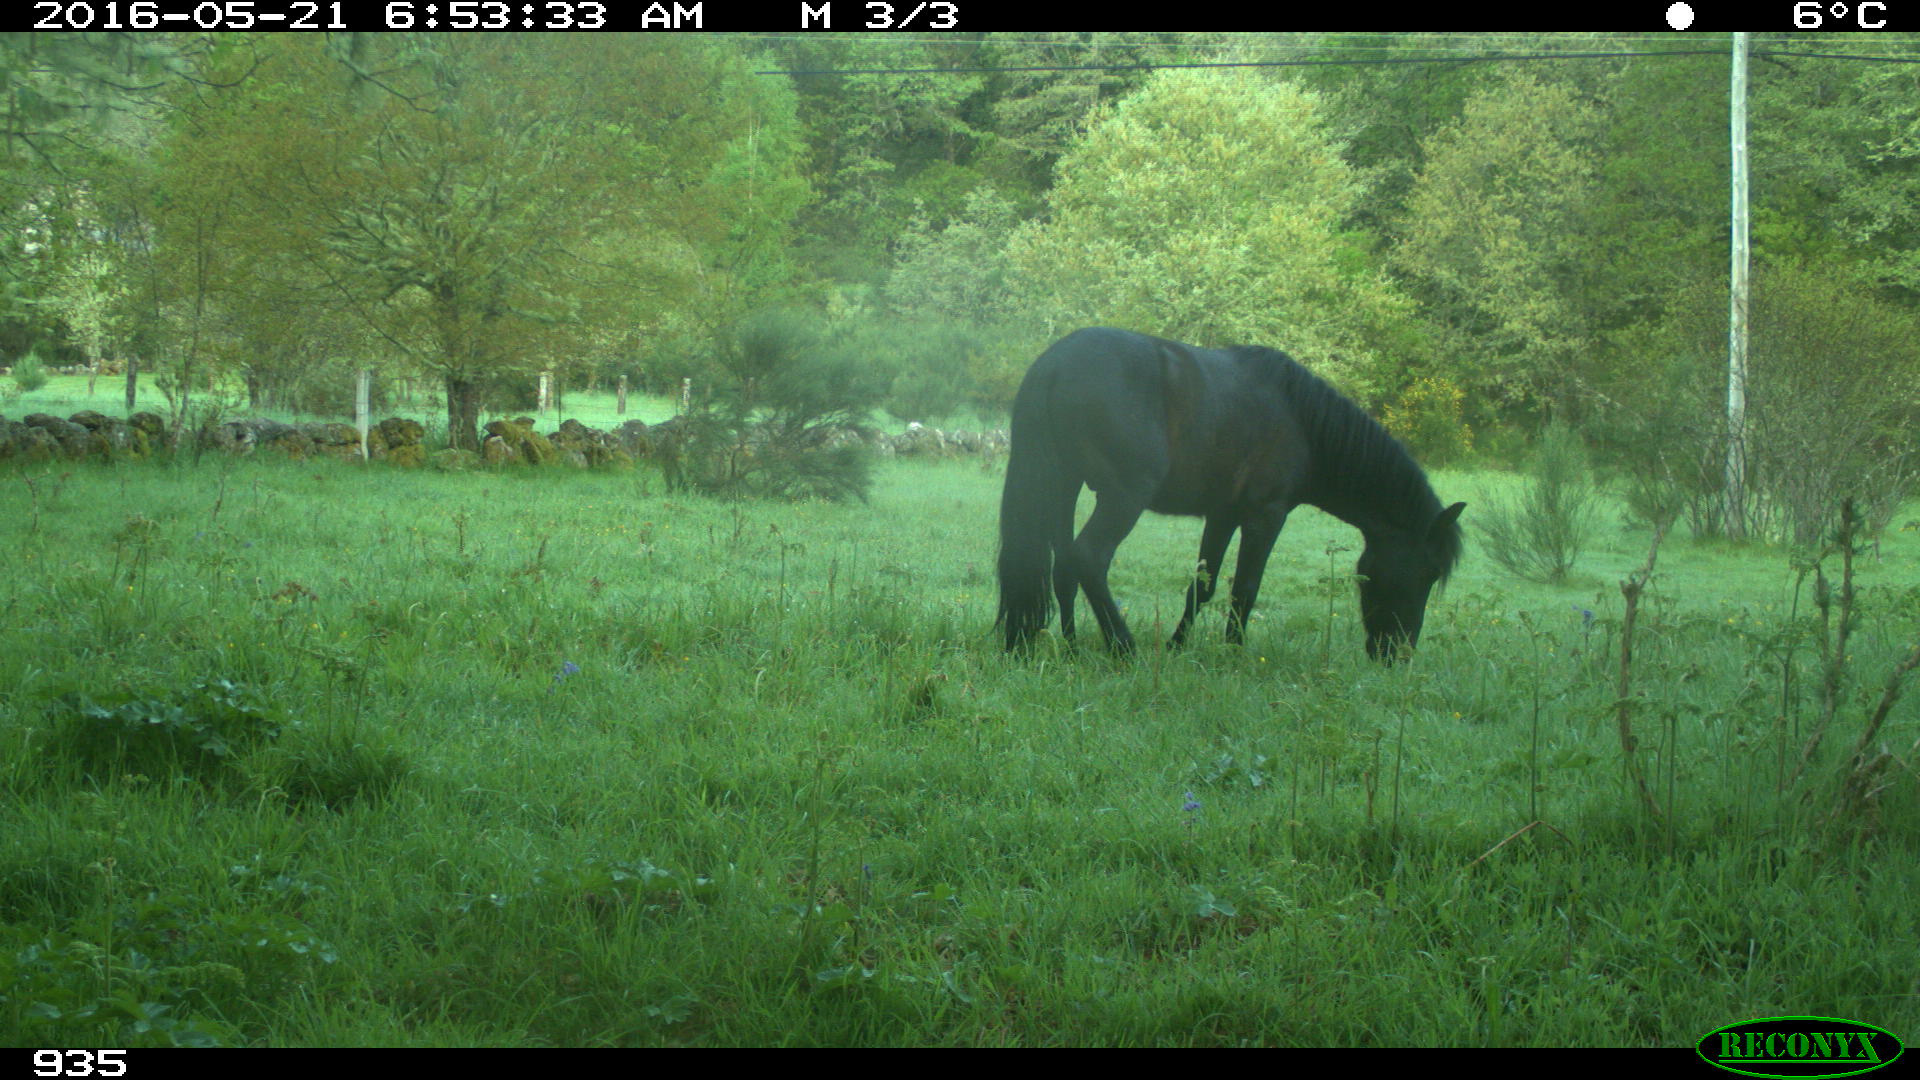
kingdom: Animalia
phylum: Chordata
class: Mammalia
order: Perissodactyla
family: Equidae
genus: Equus
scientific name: Equus caballus
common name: Horse
